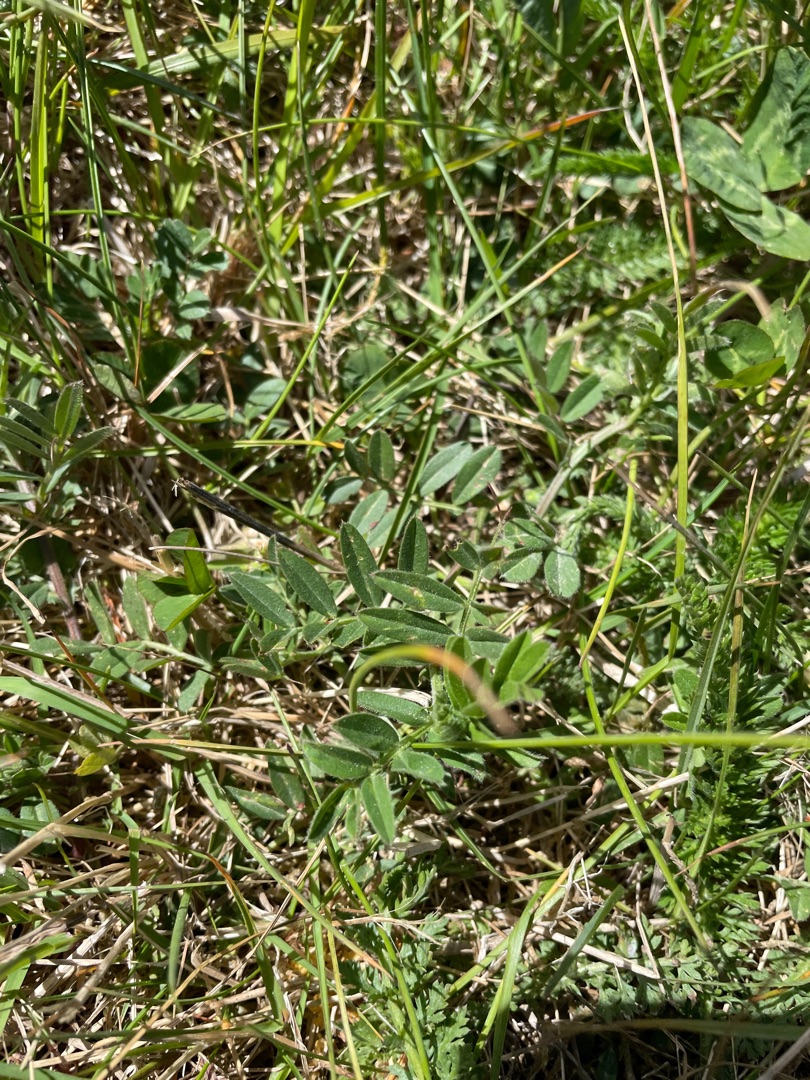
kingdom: Plantae
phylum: Tracheophyta
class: Magnoliopsida
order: Fabales
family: Fabaceae
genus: Vicia
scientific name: Vicia sativa
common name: Smalbladet vikke
